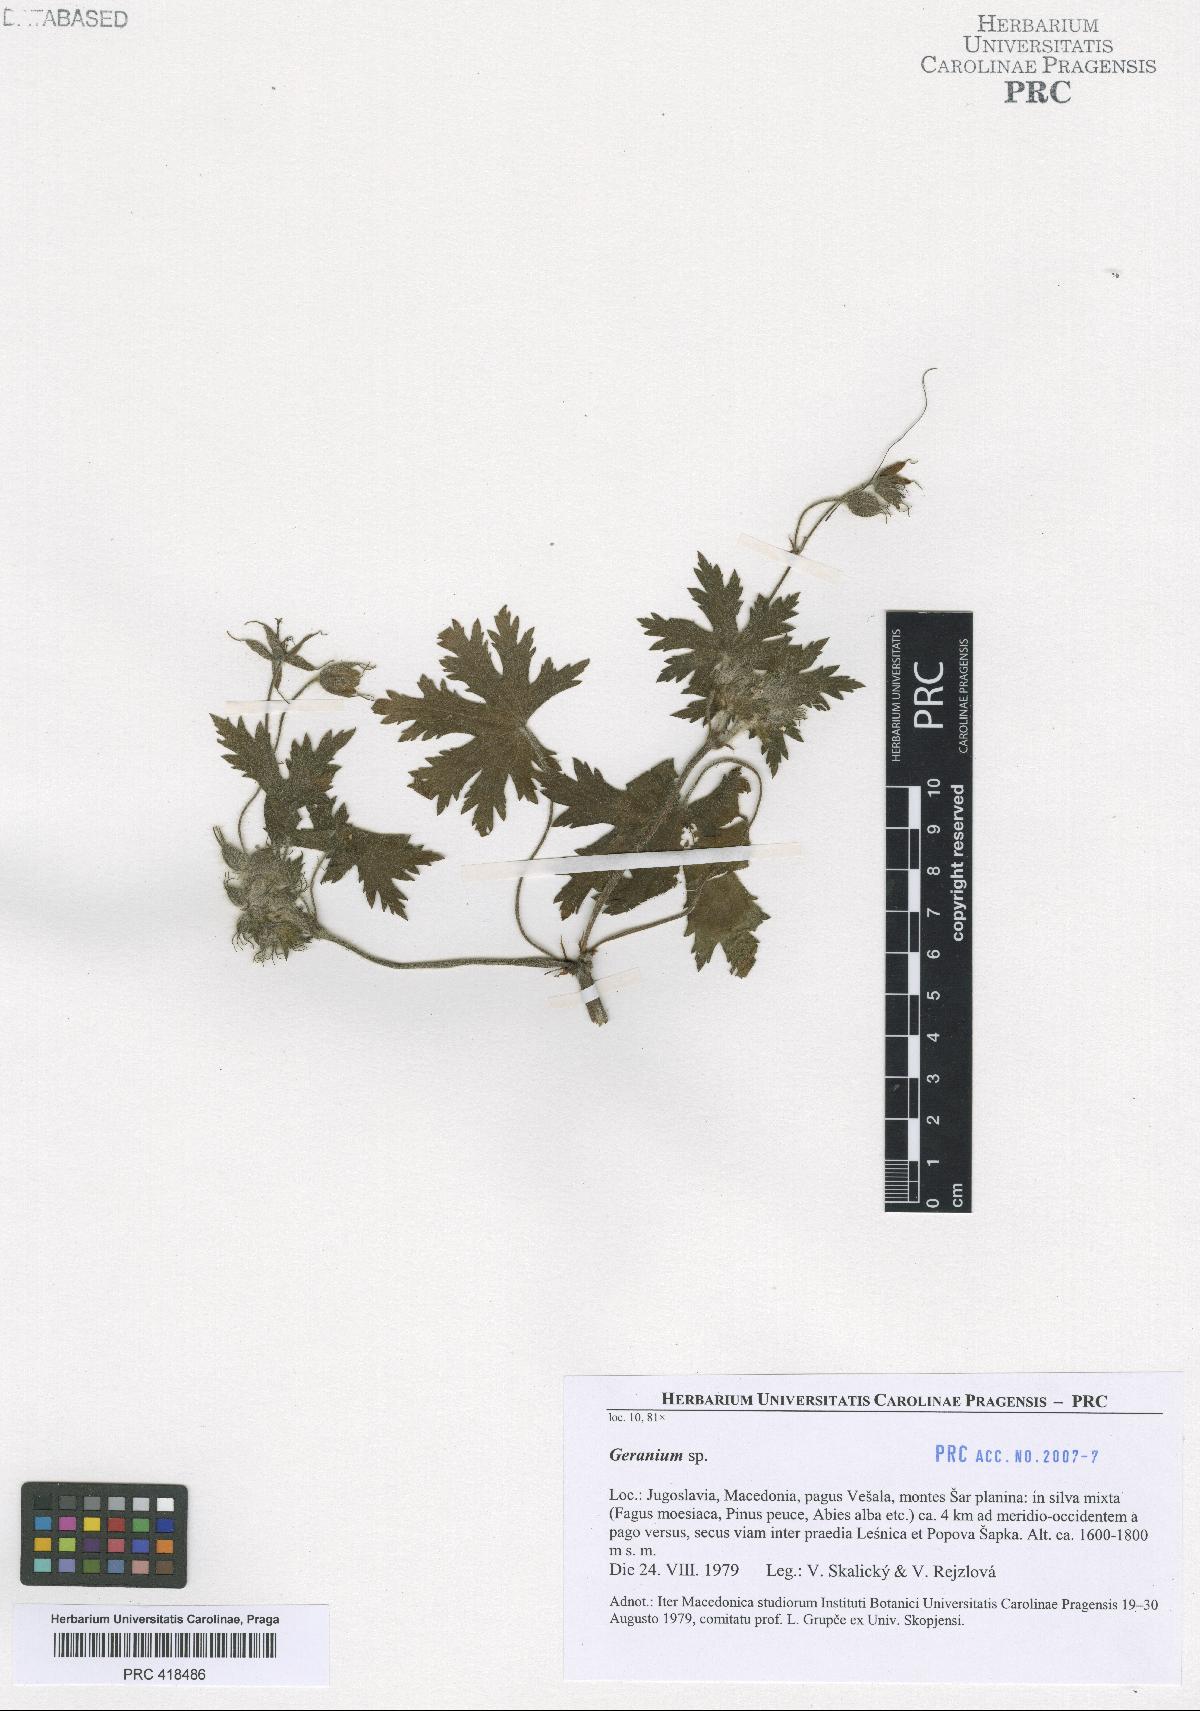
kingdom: Plantae
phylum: Tracheophyta
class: Magnoliopsida
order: Geraniales
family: Geraniaceae
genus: Geranium
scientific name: Geranium aristatum
